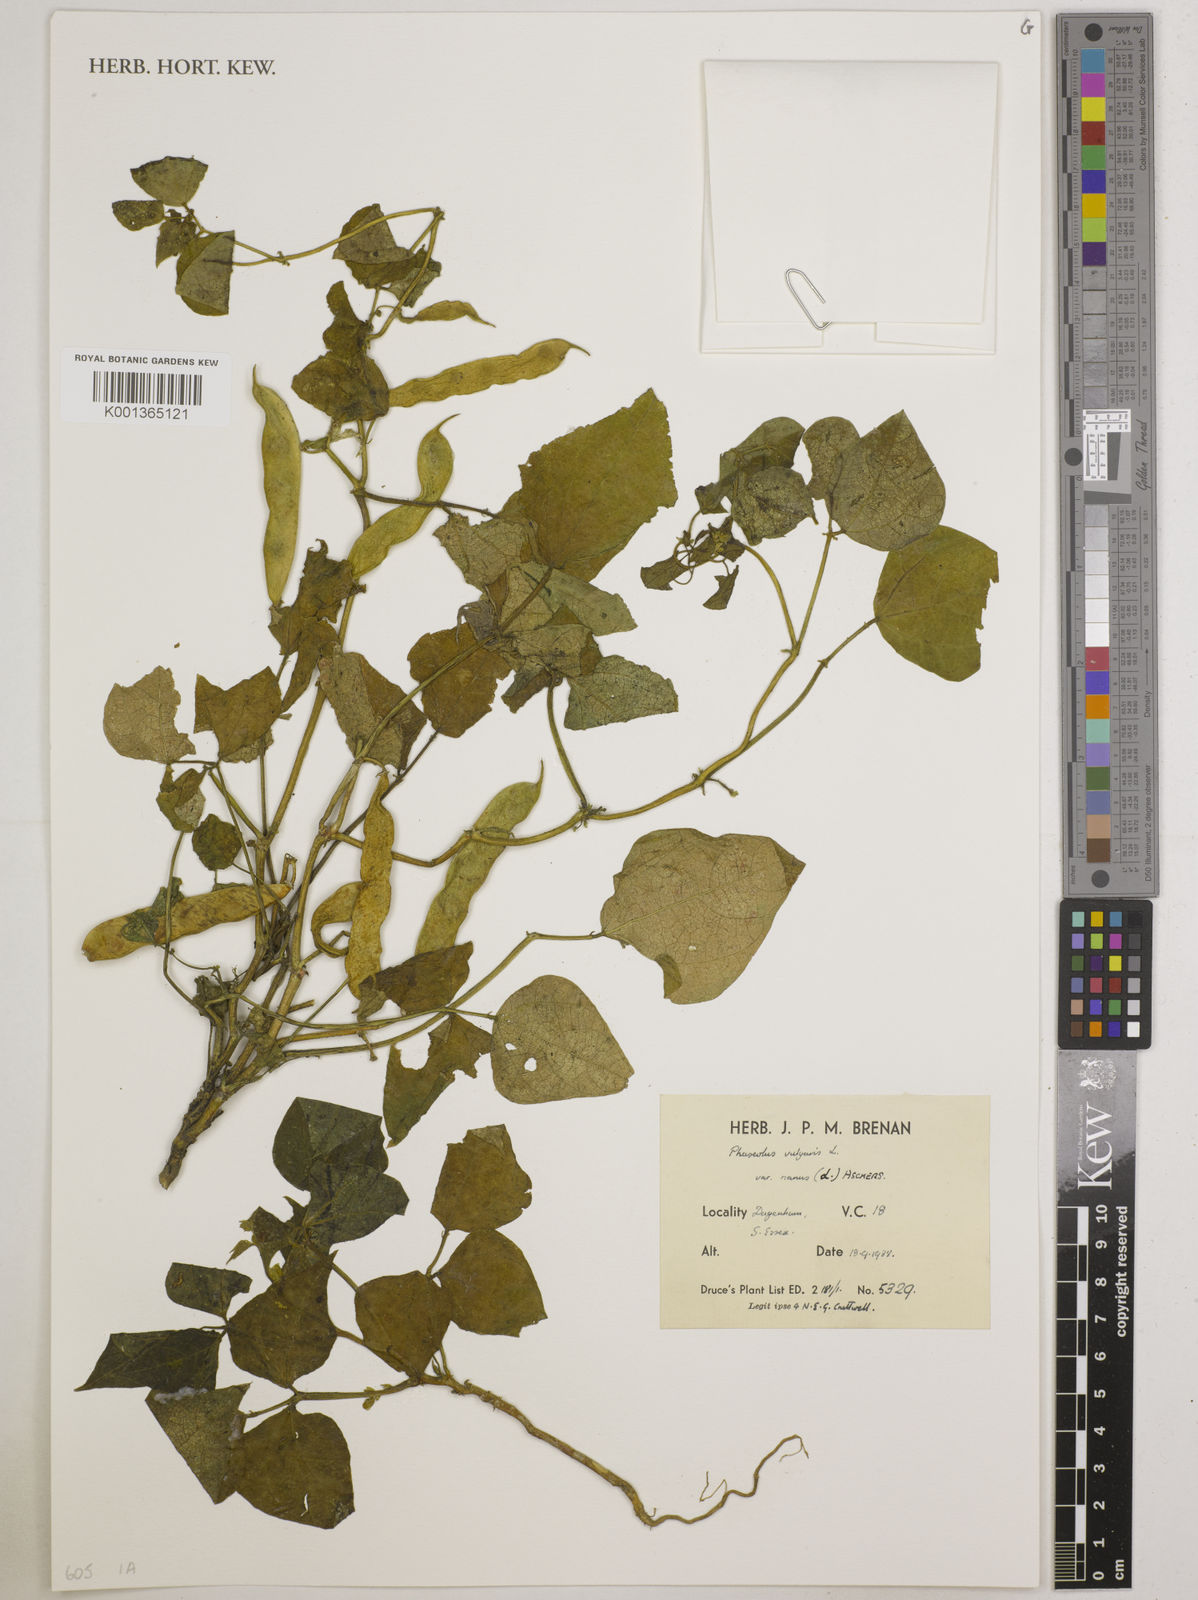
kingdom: Plantae
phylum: Tracheophyta
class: Magnoliopsida
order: Fabales
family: Fabaceae
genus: Phaseolus
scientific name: Phaseolus vulgaris
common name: Bean
